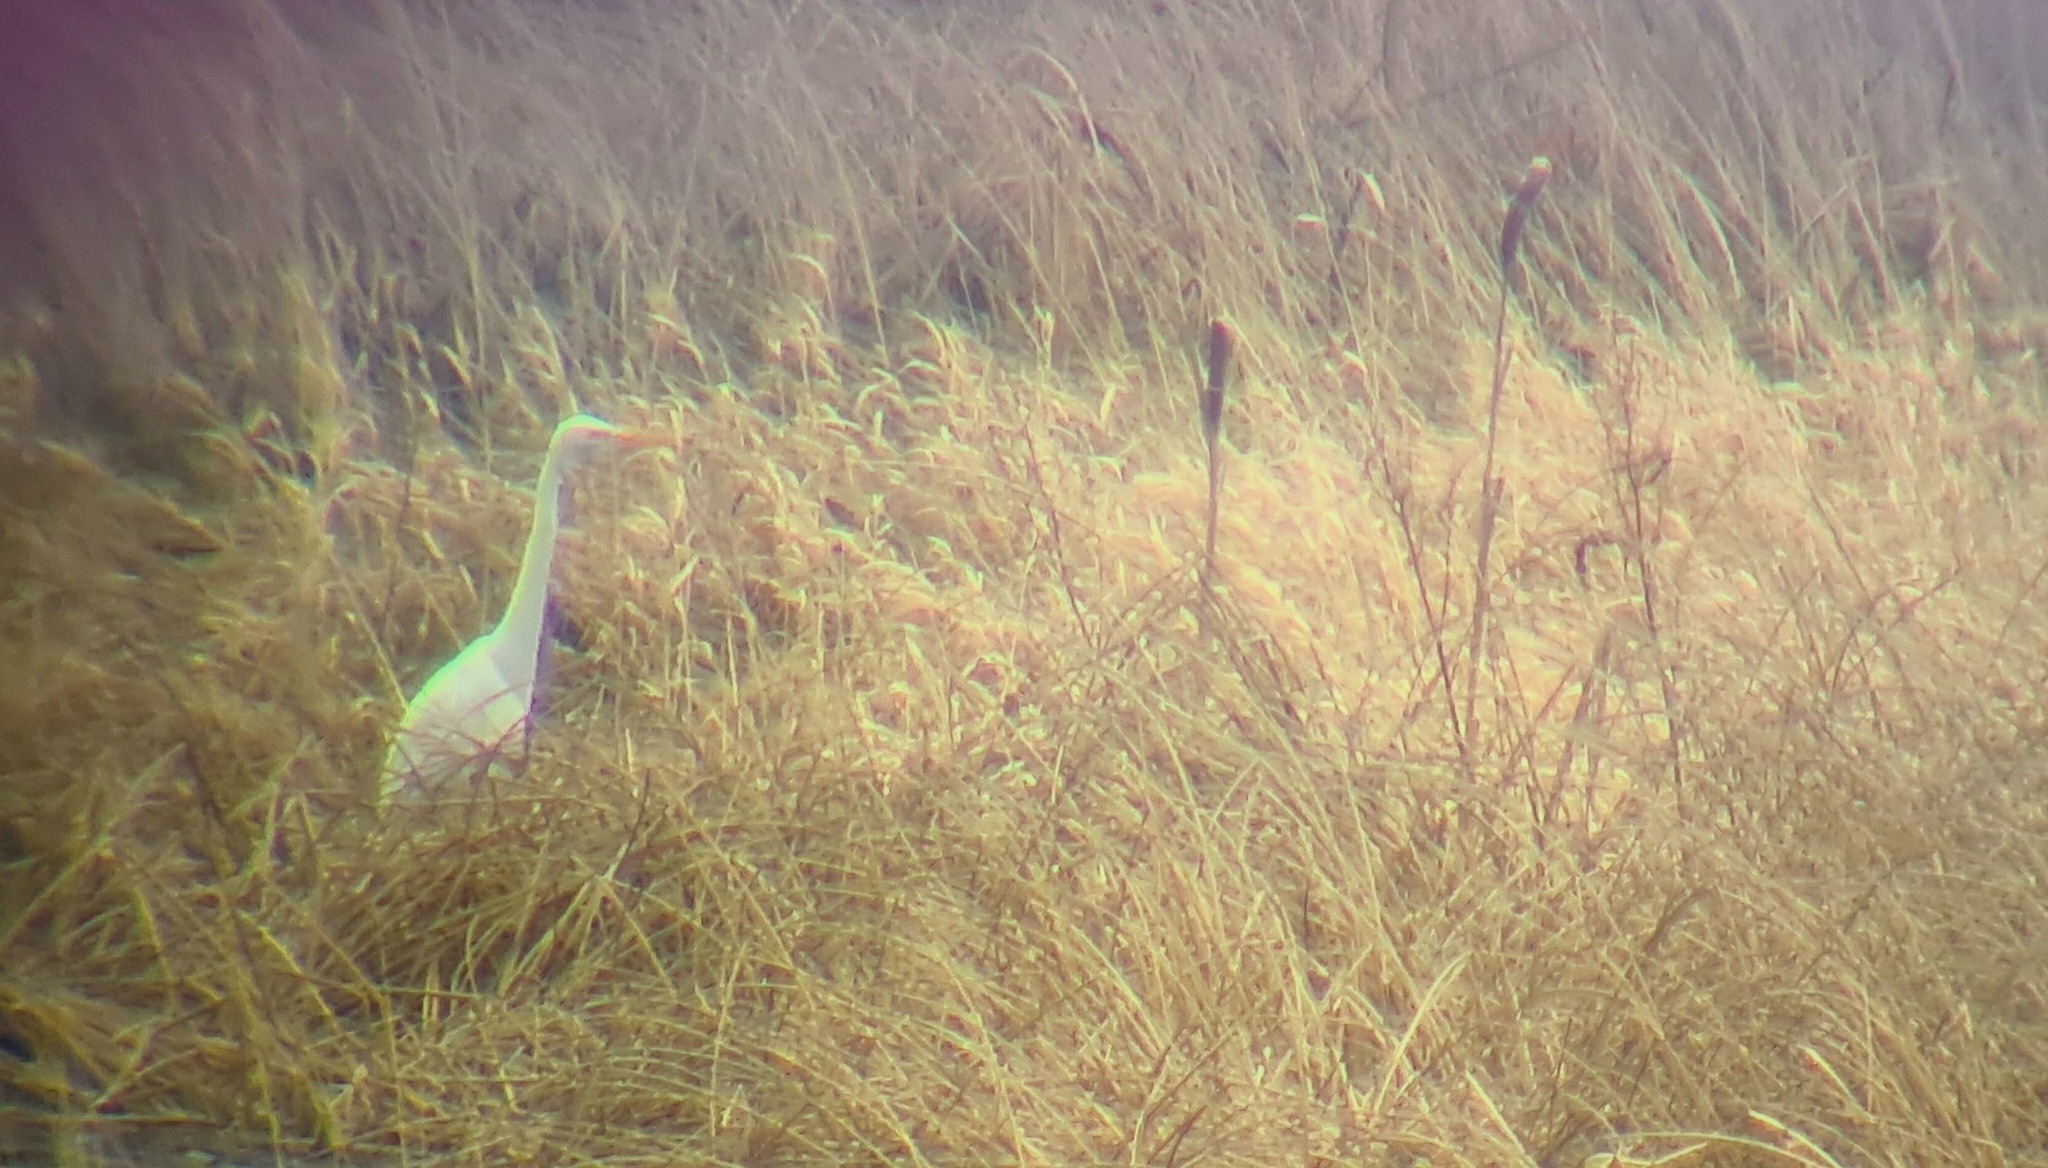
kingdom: Animalia
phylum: Chordata
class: Aves
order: Pelecaniformes
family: Ardeidae
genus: Ardea
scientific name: Ardea alba
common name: Sølvhejre
